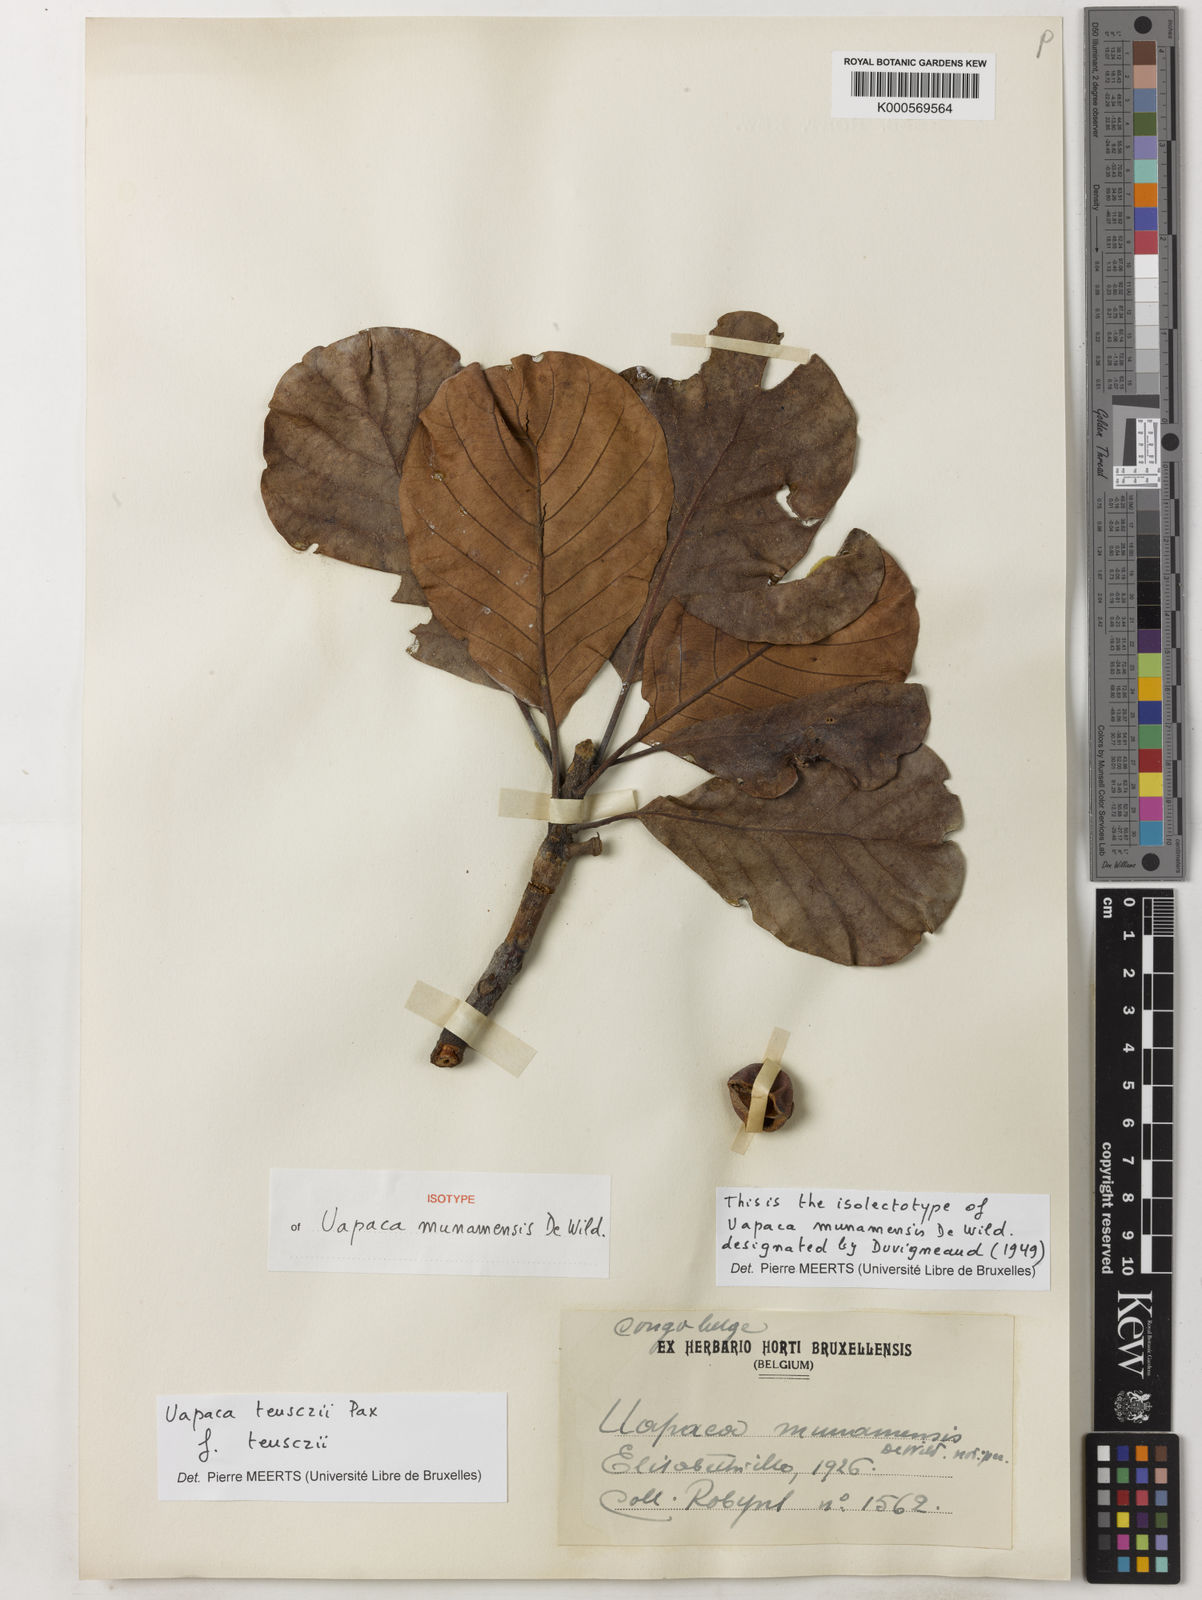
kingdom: Plantae
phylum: Tracheophyta
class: Magnoliopsida
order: Malpighiales
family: Phyllanthaceae
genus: Uapaca
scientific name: Uapaca teusczii
